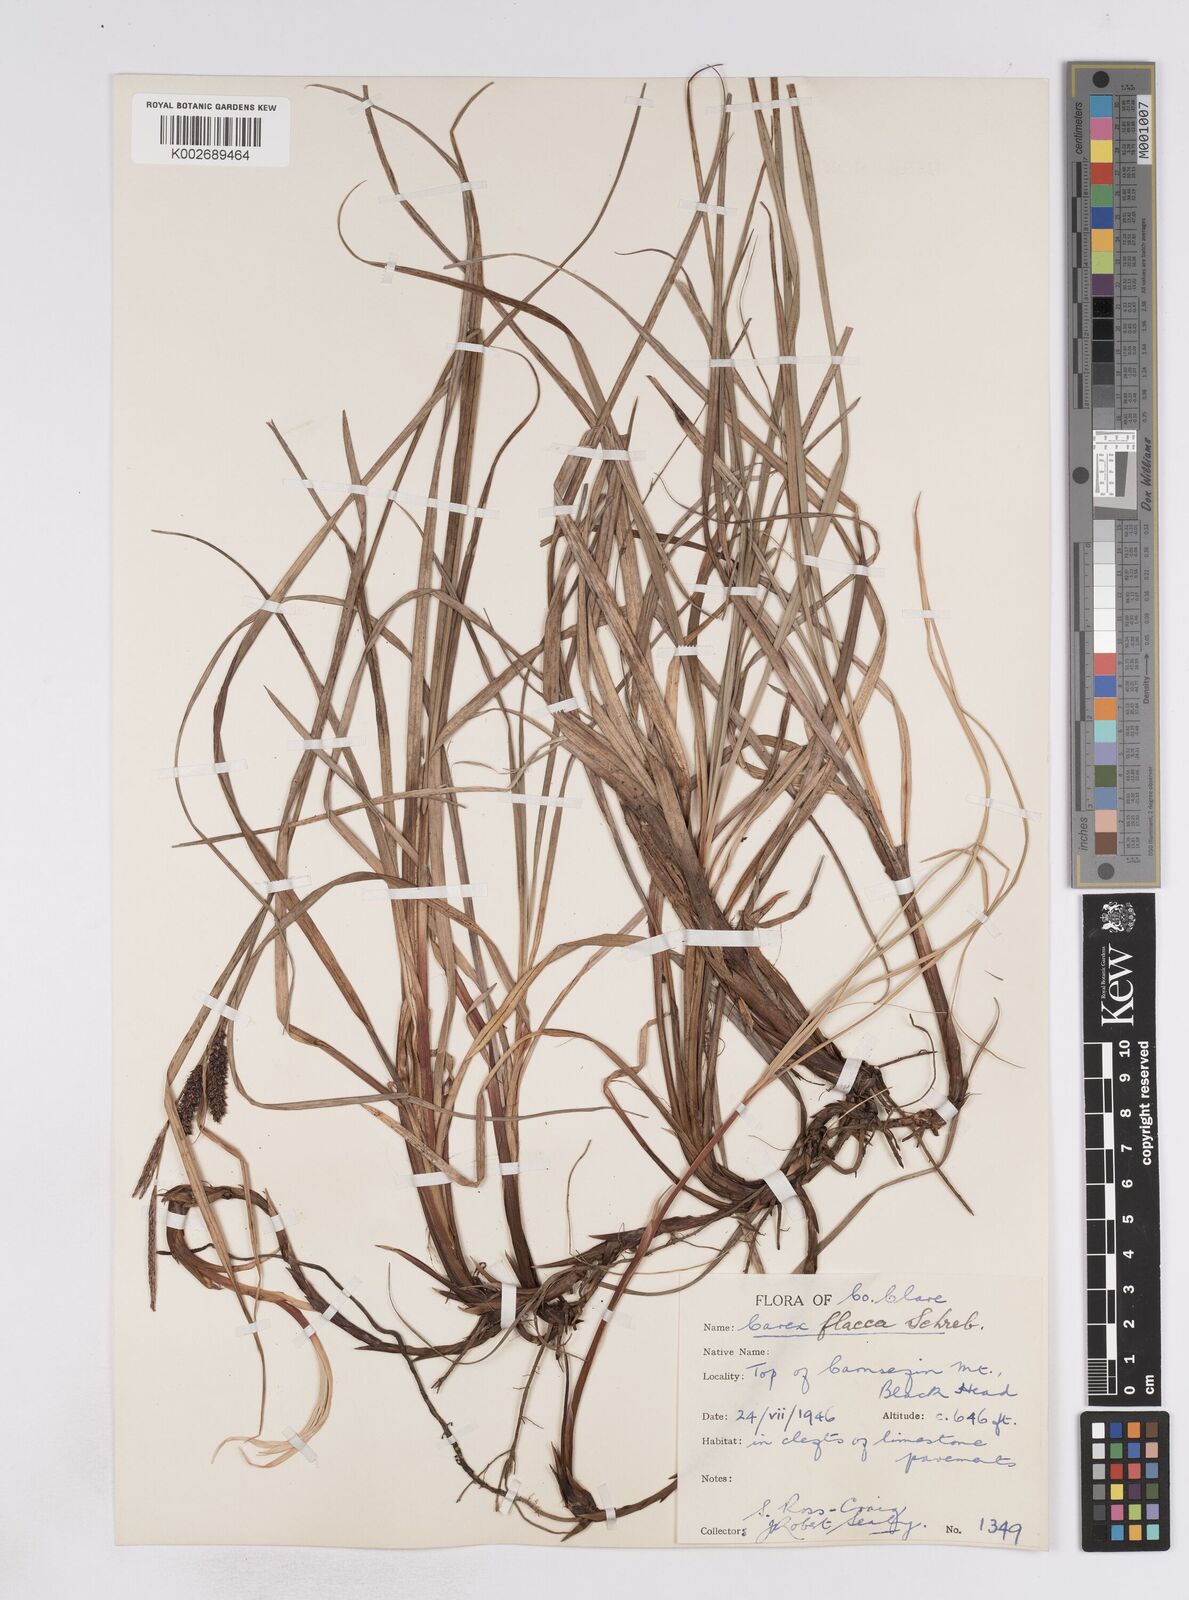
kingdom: Plantae
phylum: Tracheophyta
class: Liliopsida
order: Poales
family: Cyperaceae
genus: Carex
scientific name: Carex flacca
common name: Glaucous sedge
